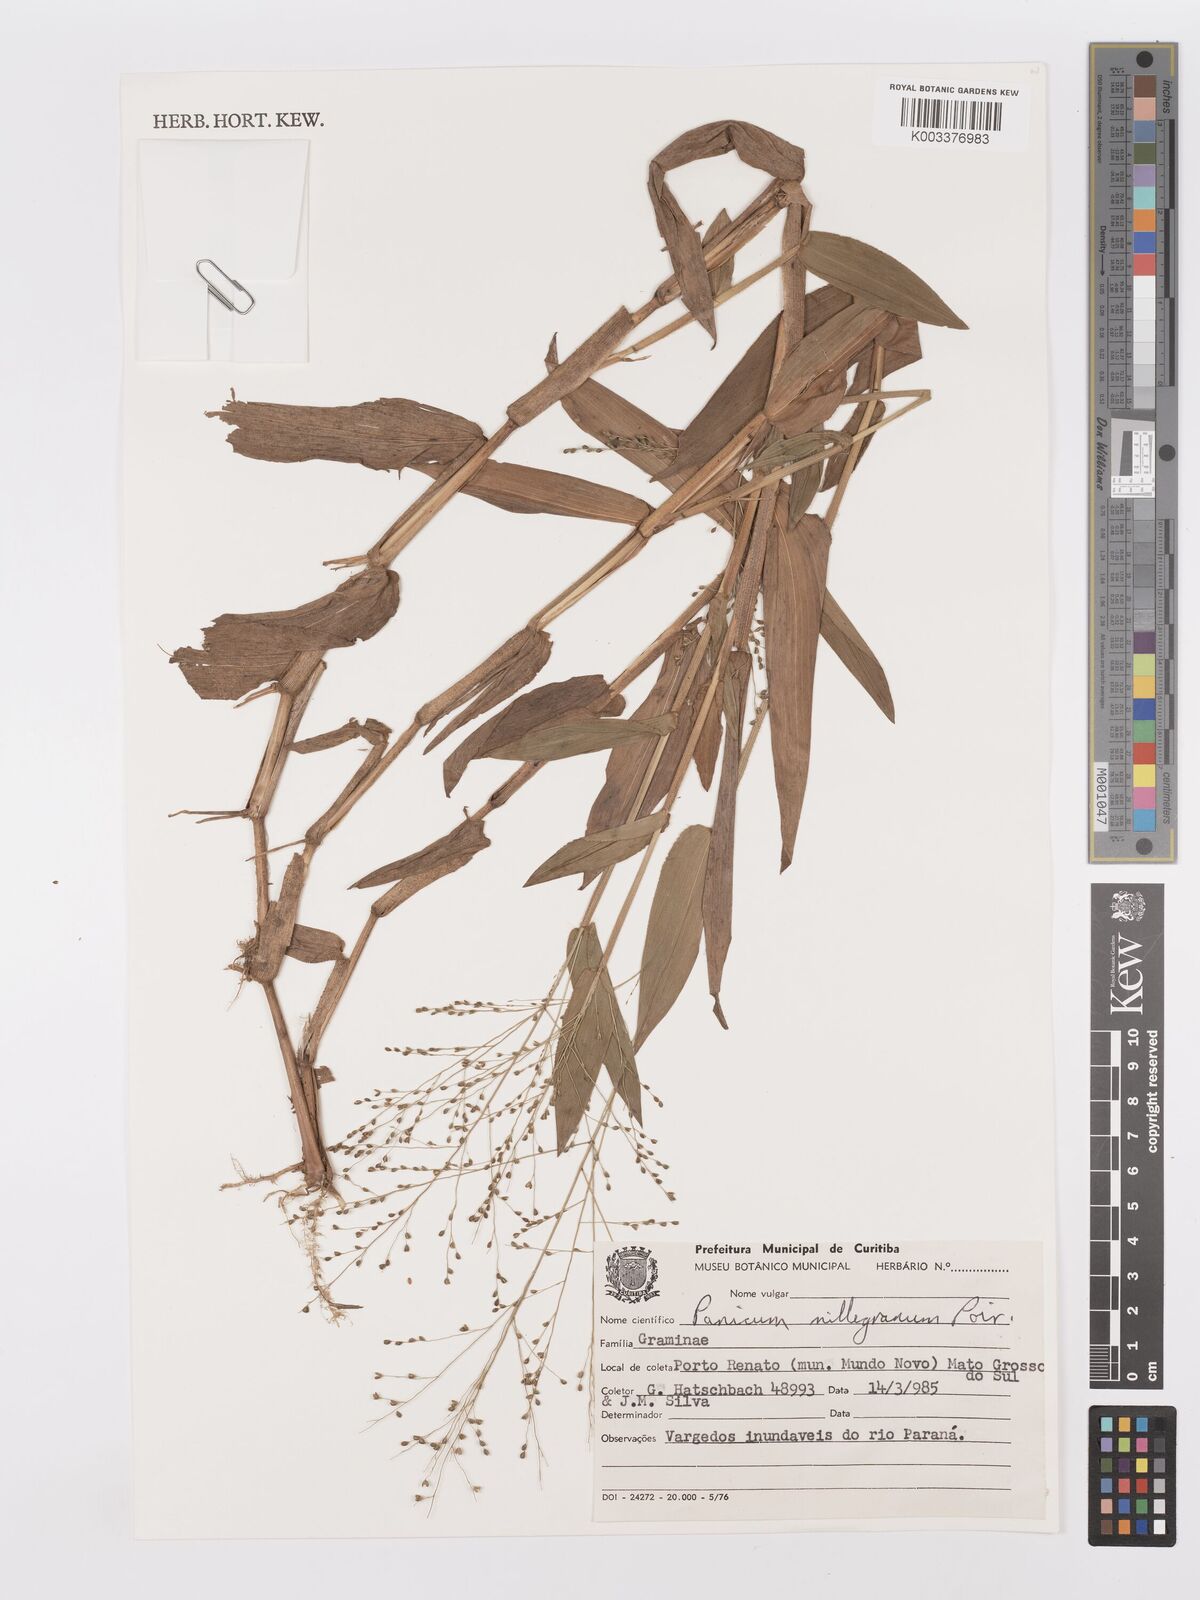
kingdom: Plantae
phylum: Tracheophyta
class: Liliopsida
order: Poales
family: Poaceae
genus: Panicum
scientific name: Panicum millegrana
